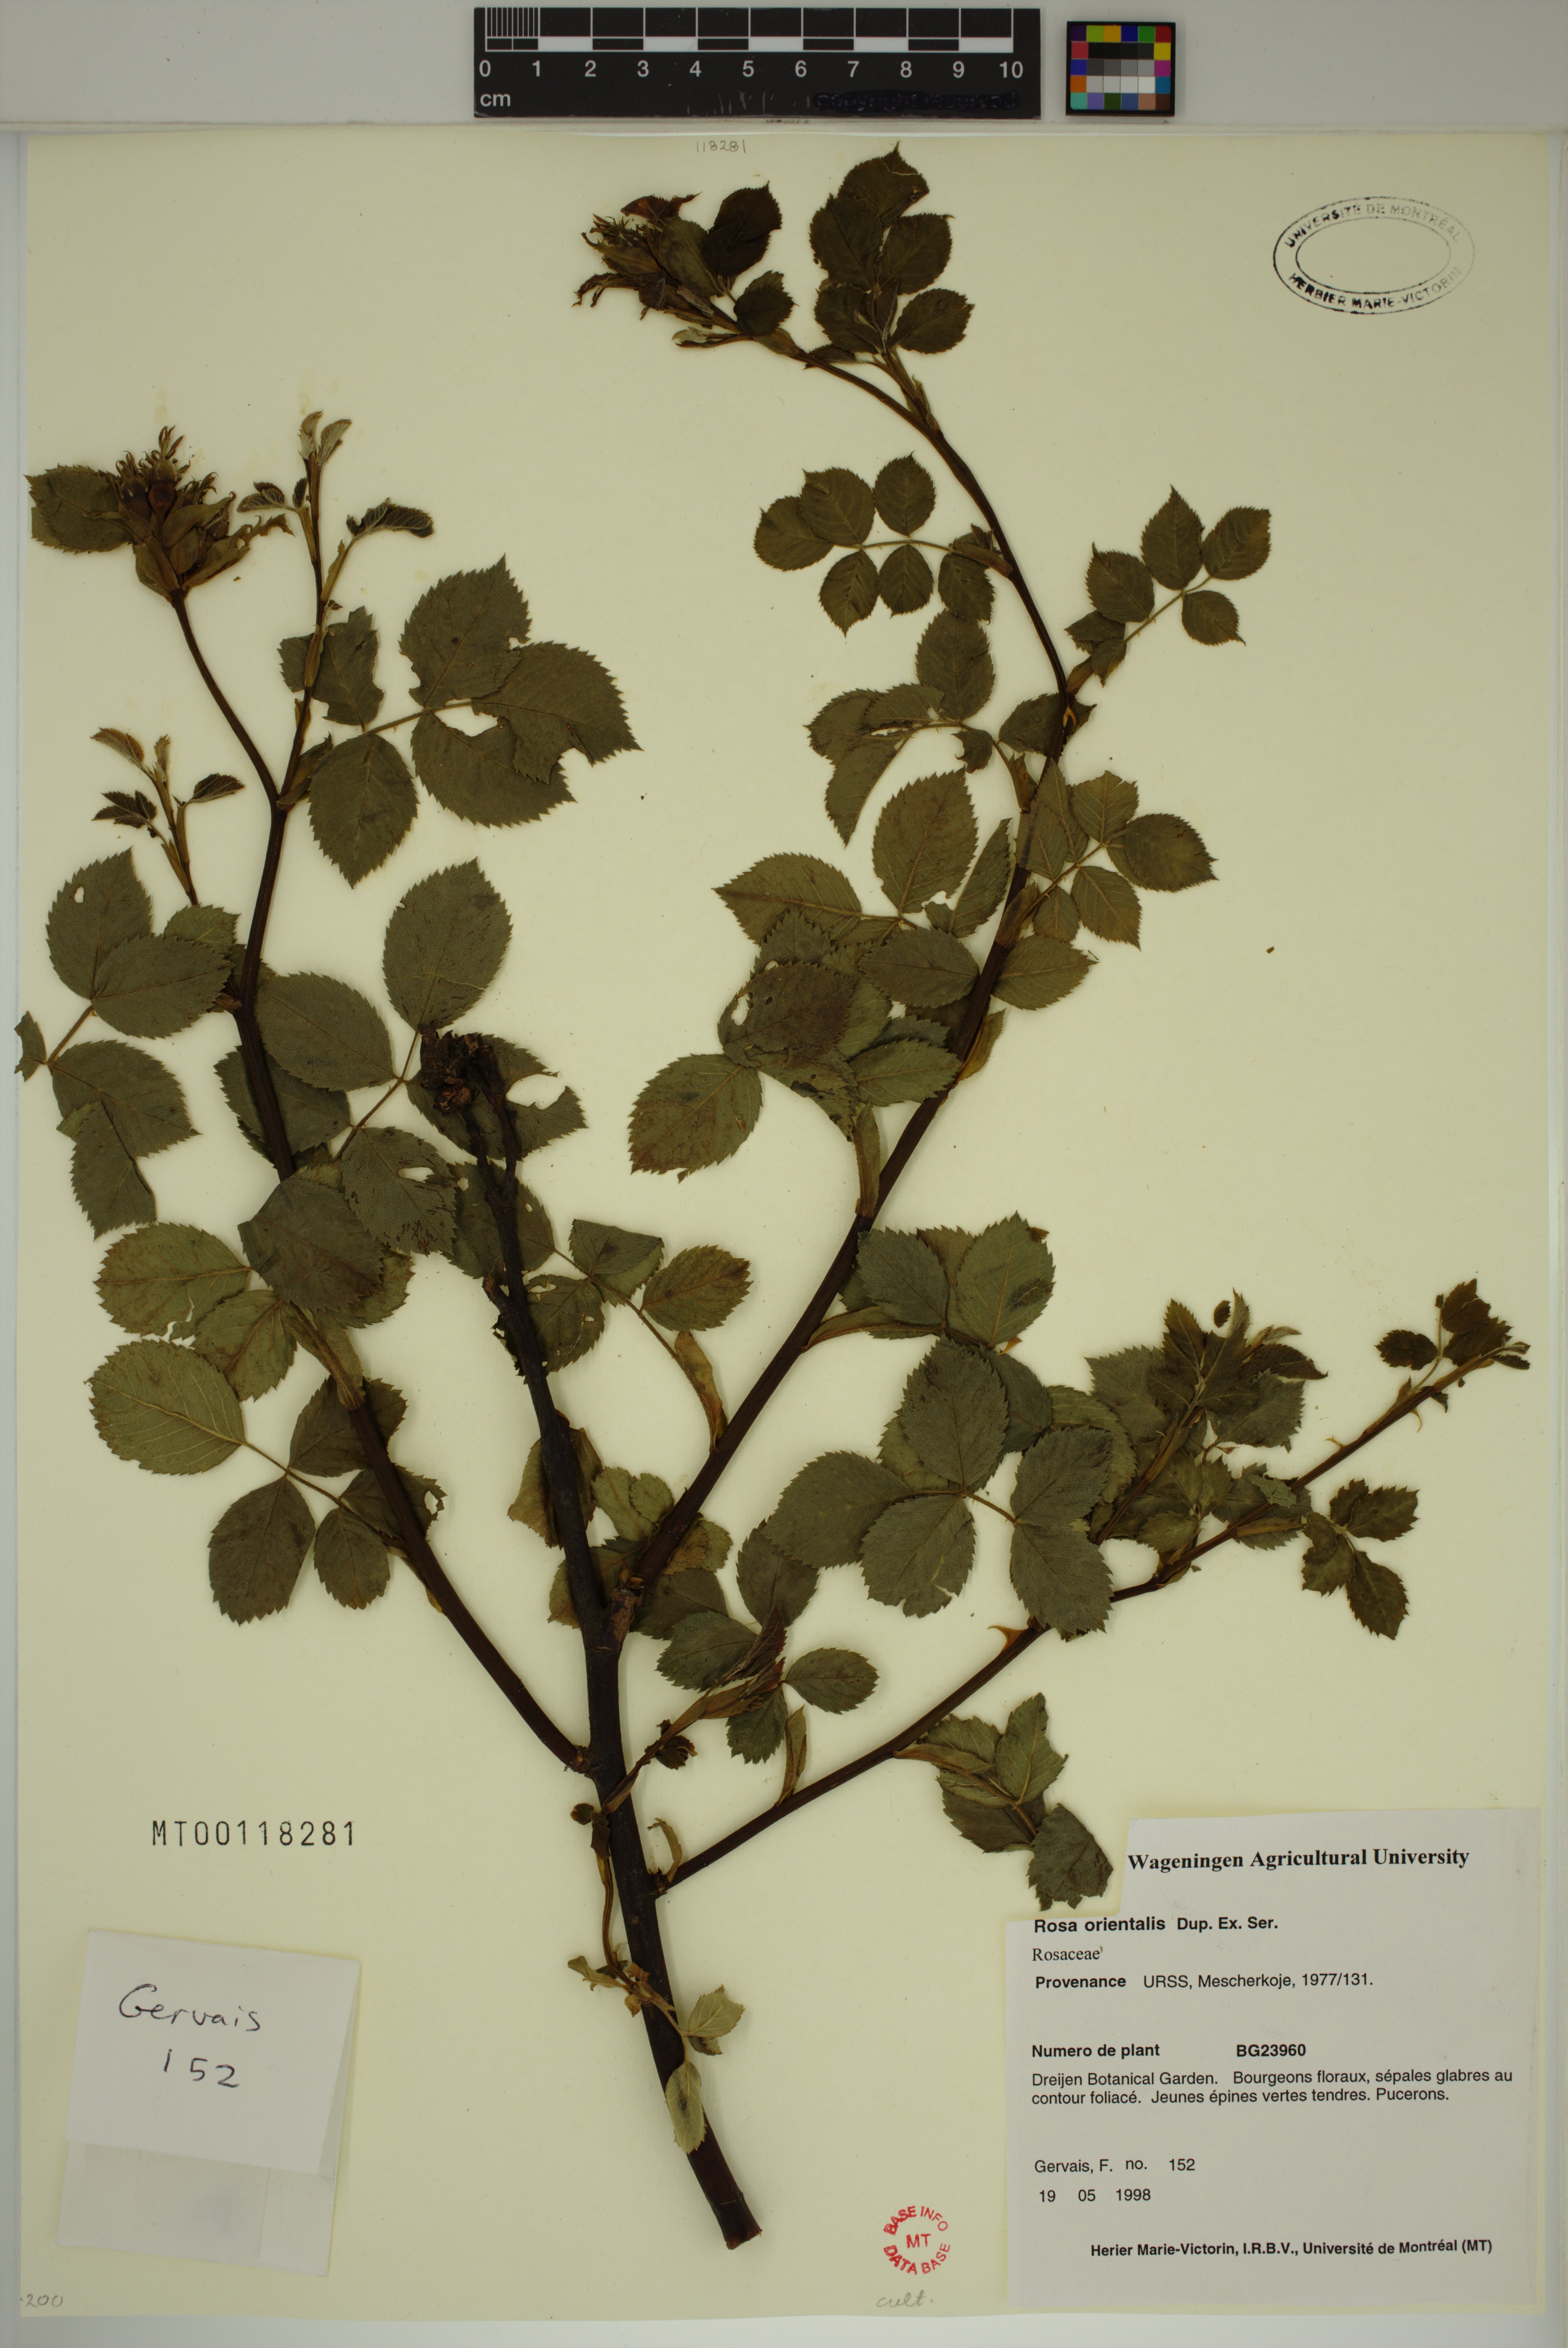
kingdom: Plantae
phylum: Tracheophyta
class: Magnoliopsida
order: Rosales
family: Rosaceae
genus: Rosa
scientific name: Rosa orientalis
